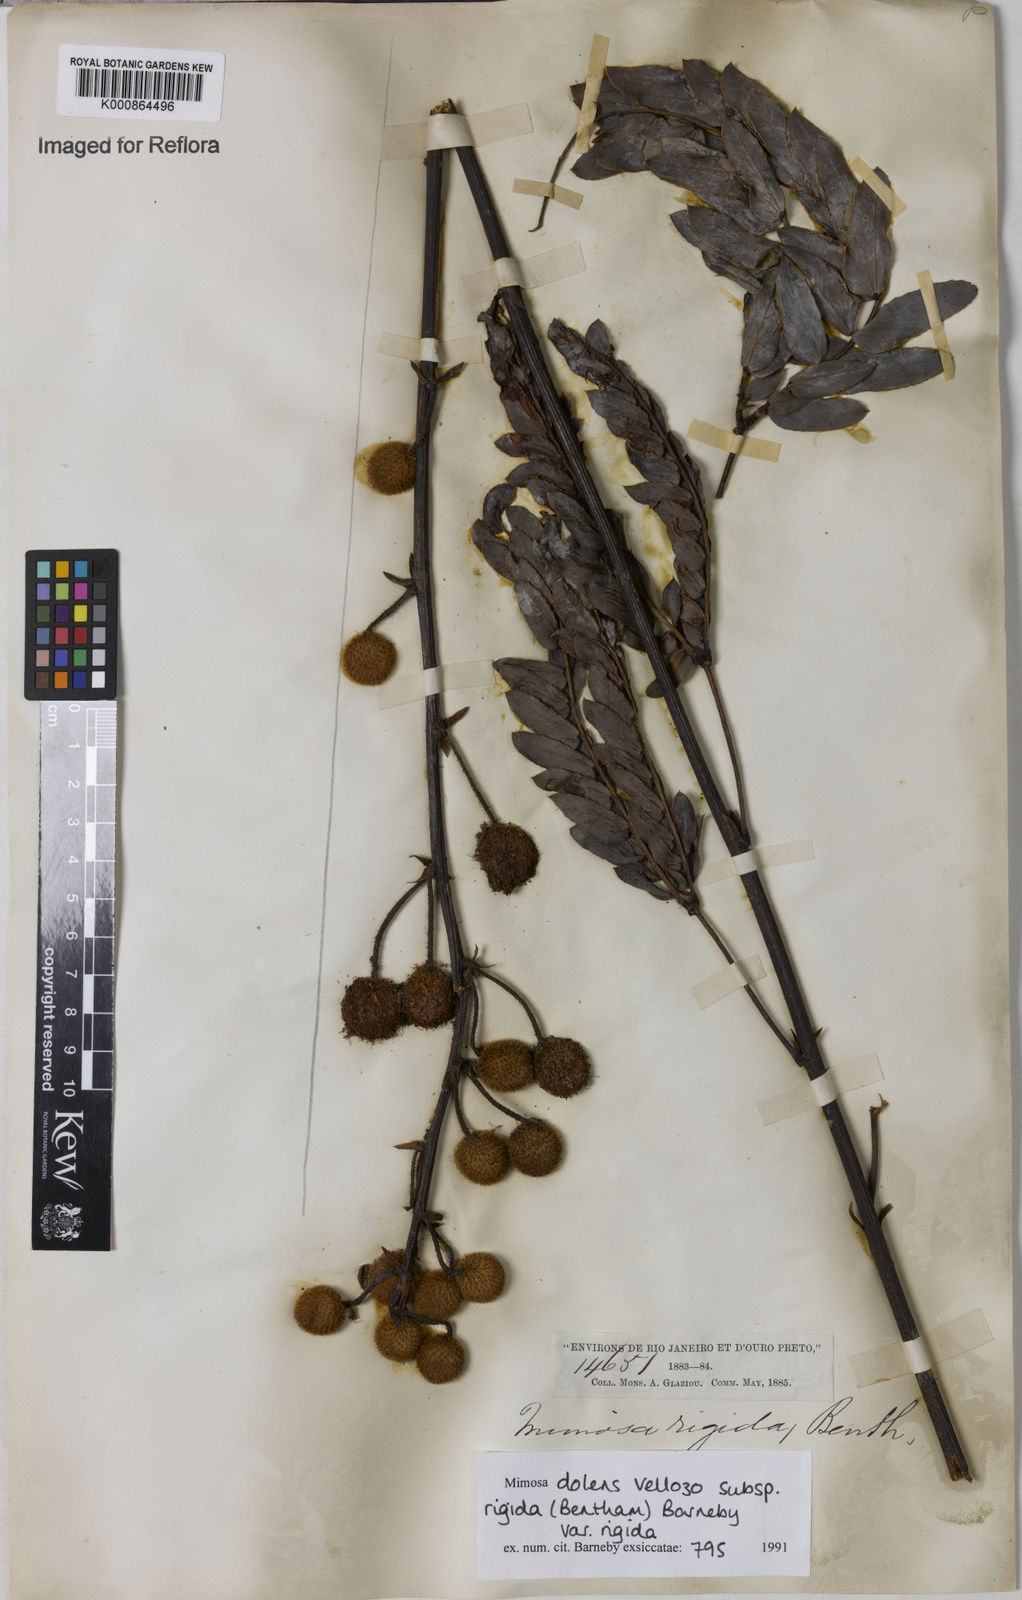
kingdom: Plantae
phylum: Tracheophyta
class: Magnoliopsida
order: Fabales
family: Fabaceae
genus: Mimosa
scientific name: Mimosa dolens
